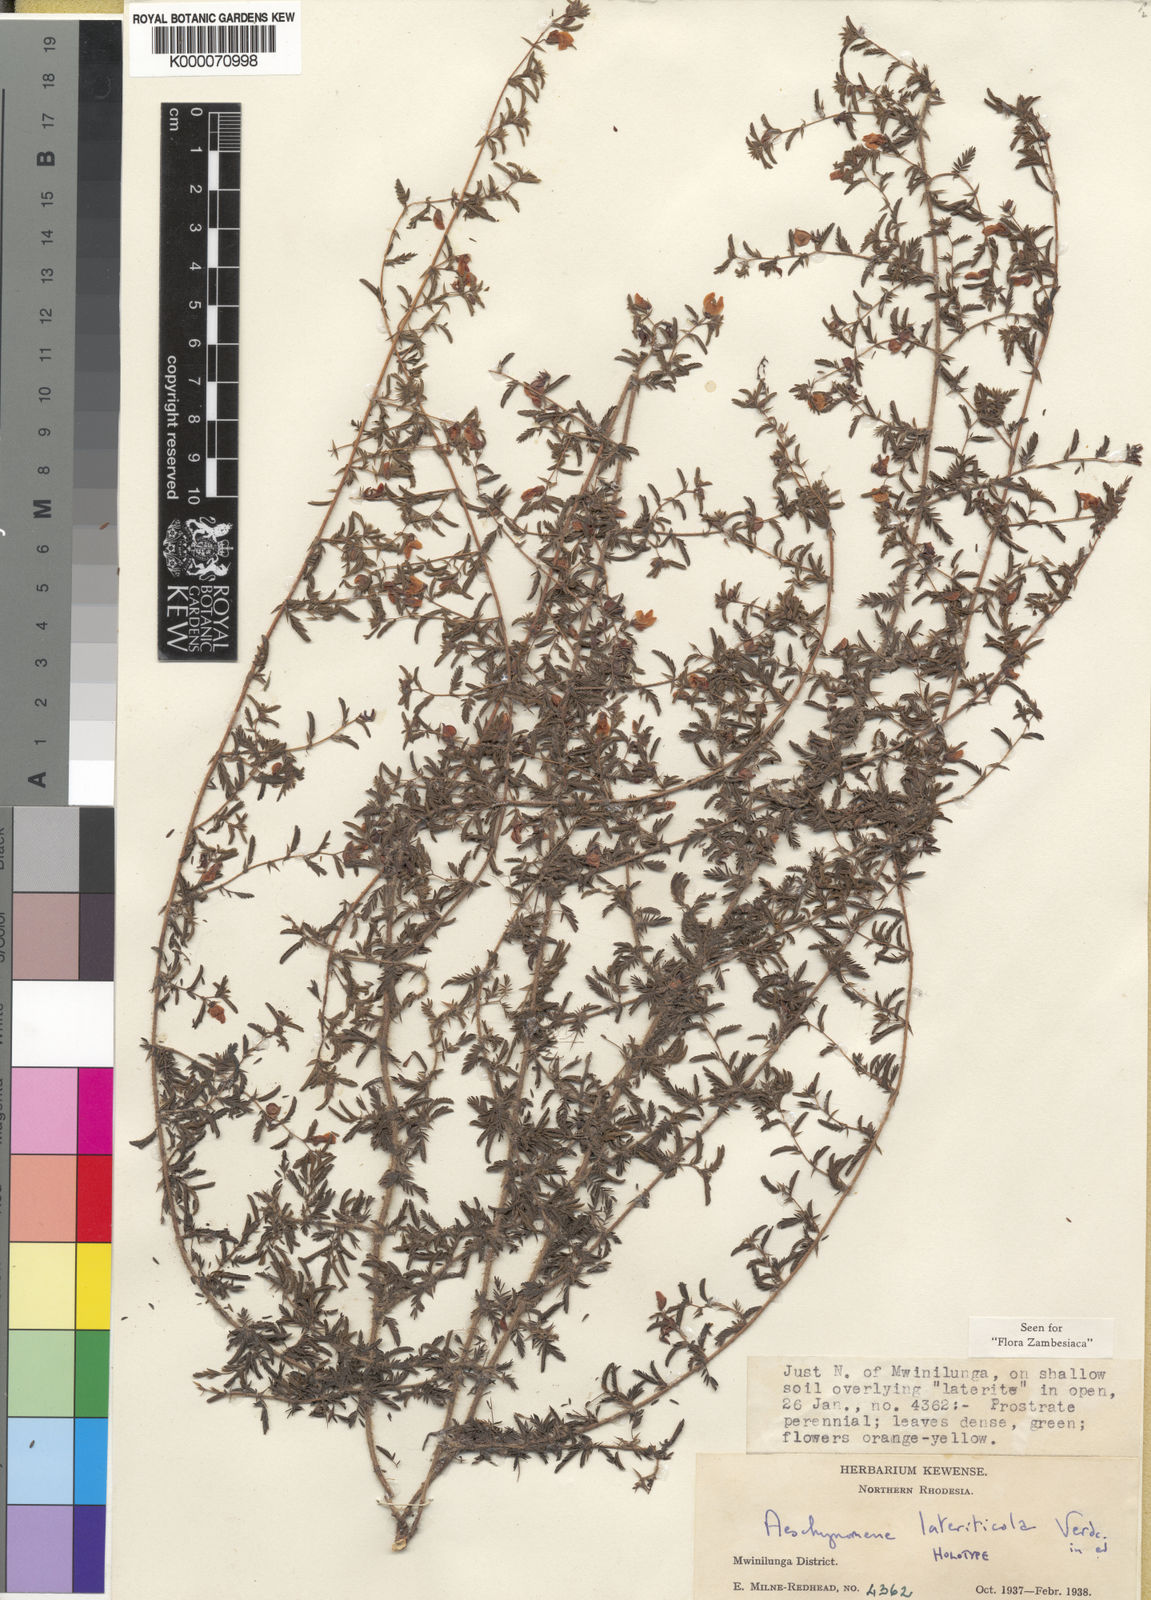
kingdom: Plantae
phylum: Tracheophyta
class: Magnoliopsida
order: Fabales
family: Fabaceae
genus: Aeschynomene
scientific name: Aeschynomene lateriticola
